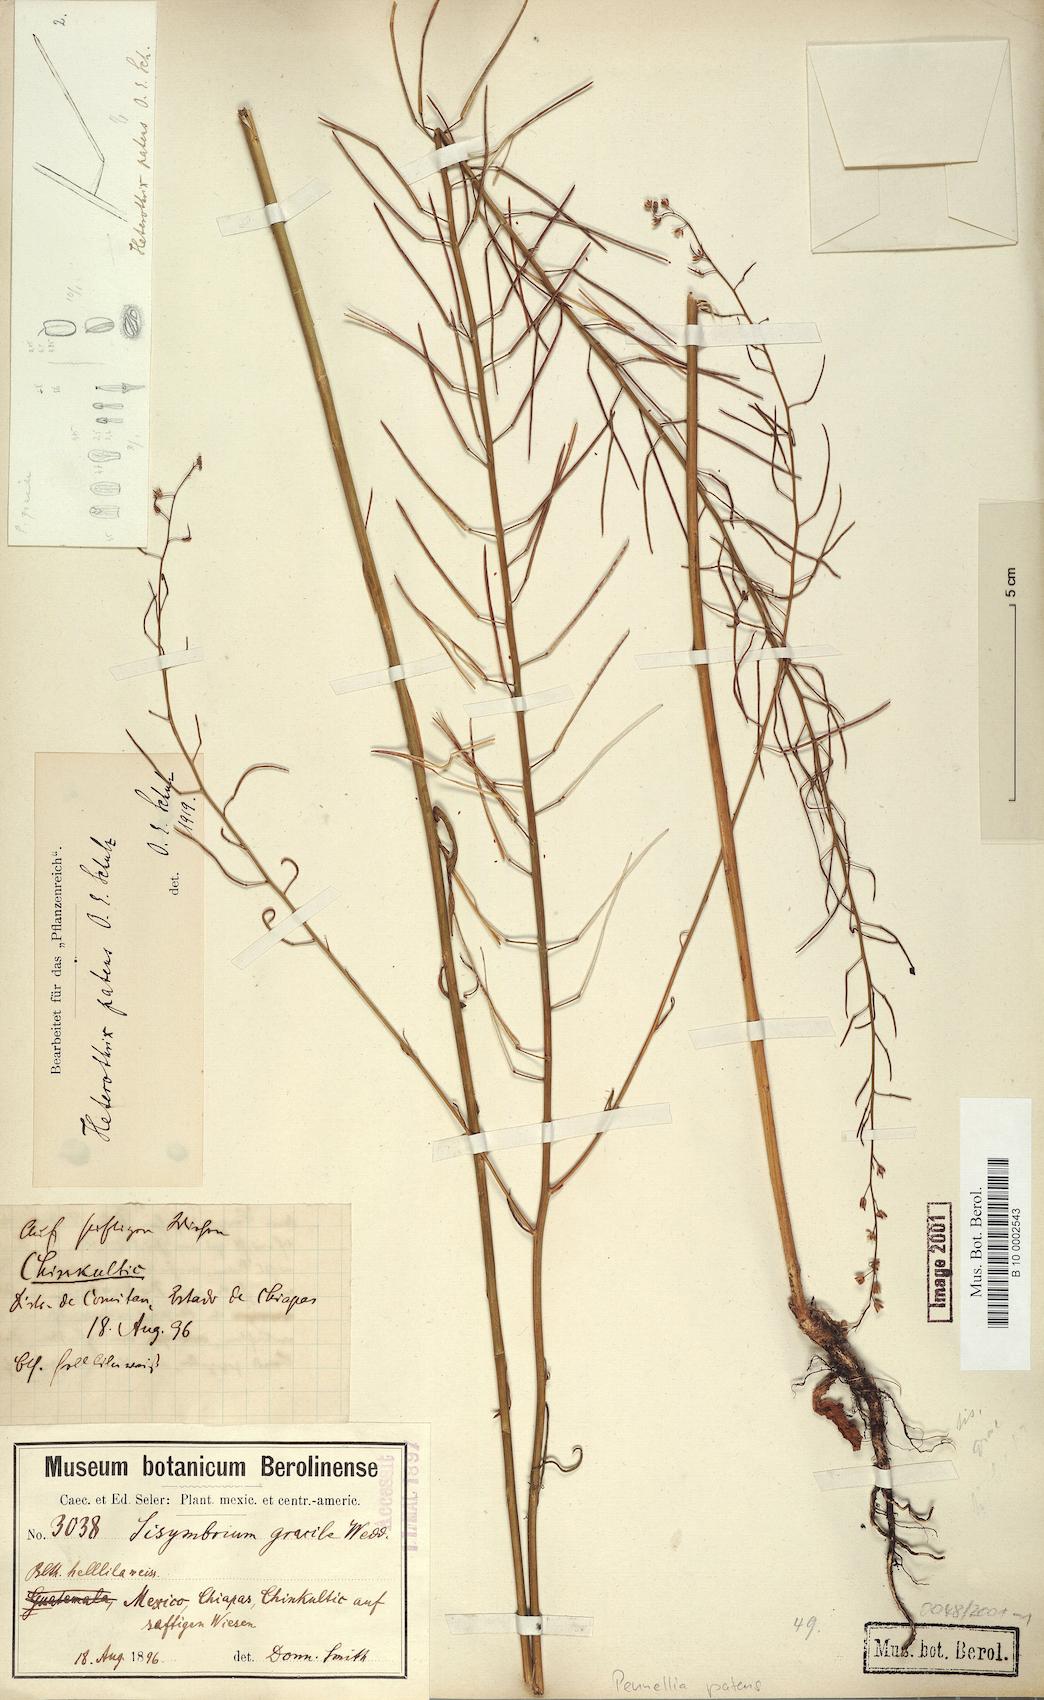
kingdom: Plantae
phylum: Tracheophyta
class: Magnoliopsida
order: Brassicales
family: Brassicaceae
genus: Pennellia
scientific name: Pennellia patens
